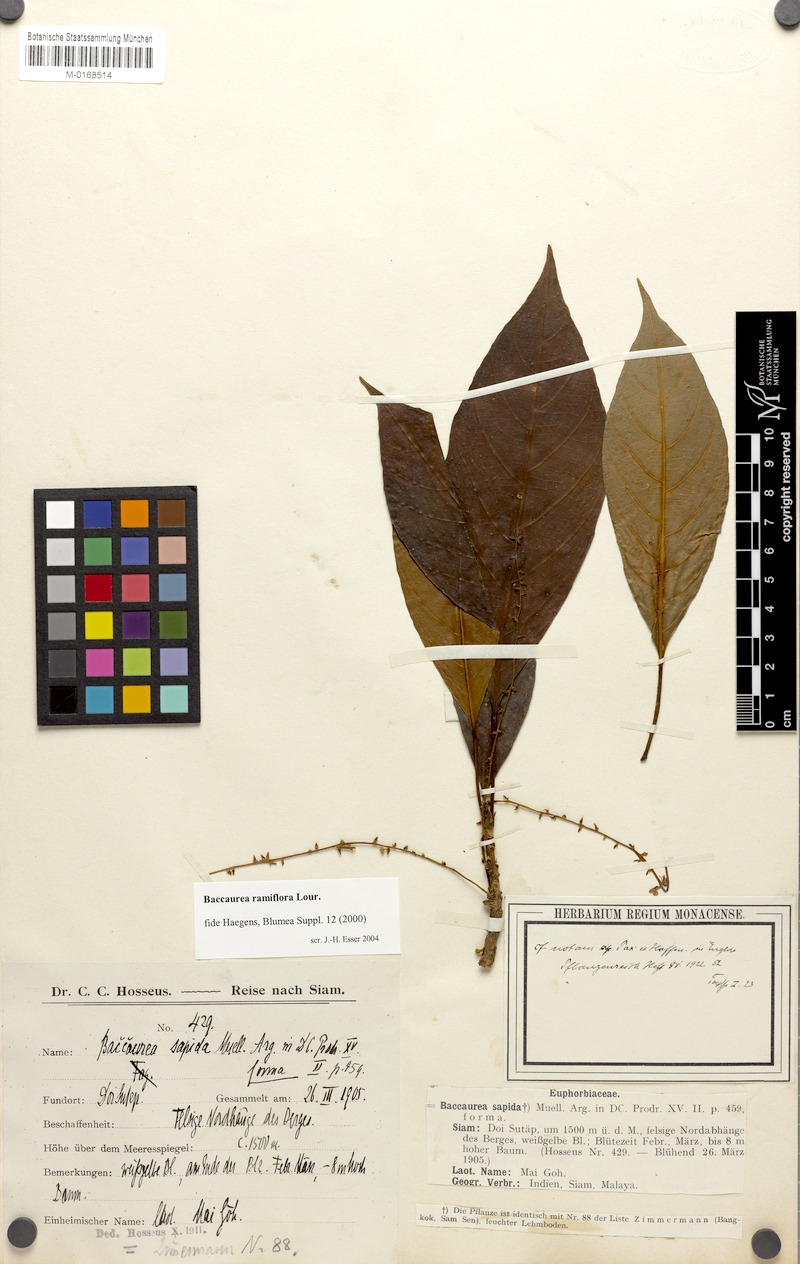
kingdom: Plantae
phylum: Tracheophyta
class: Magnoliopsida
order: Malpighiales
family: Phyllanthaceae
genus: Baccaurea
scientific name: Baccaurea ramiflora
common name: Baccaurea
